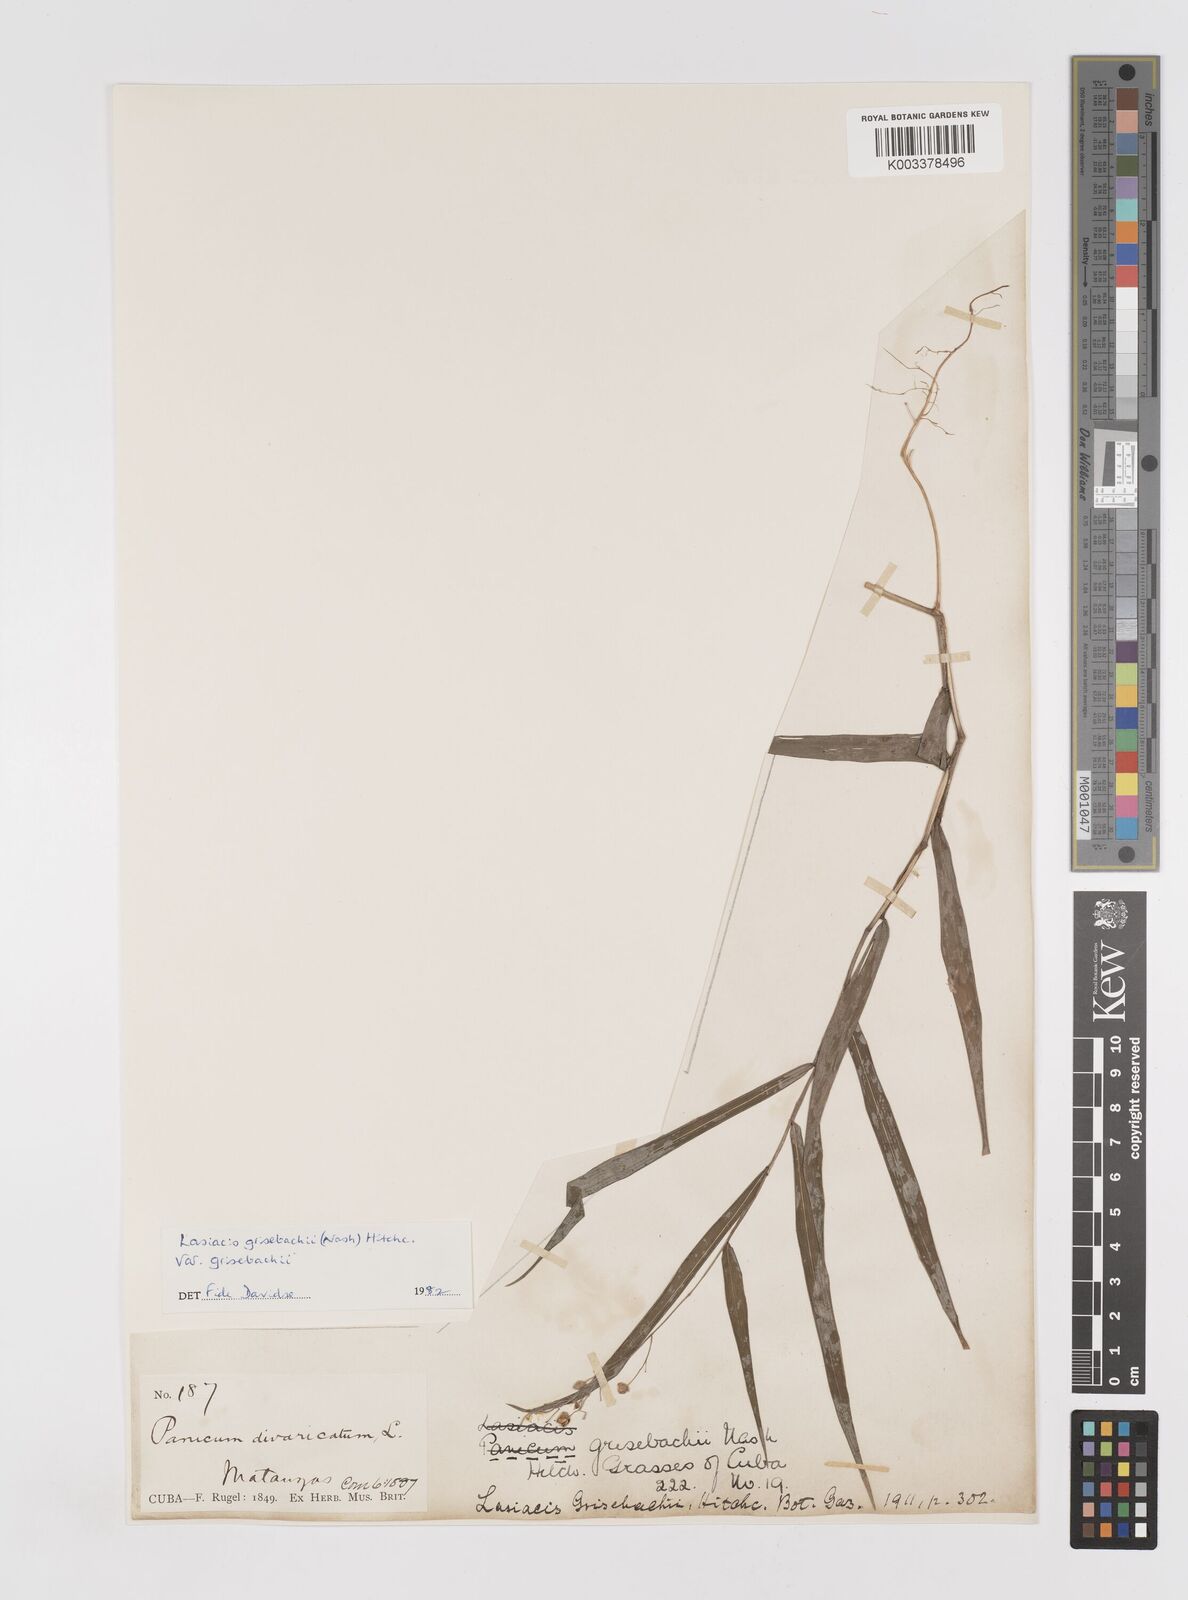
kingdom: Plantae
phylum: Tracheophyta
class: Liliopsida
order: Poales
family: Poaceae
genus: Lasiacis
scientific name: Lasiacis grisebachii
